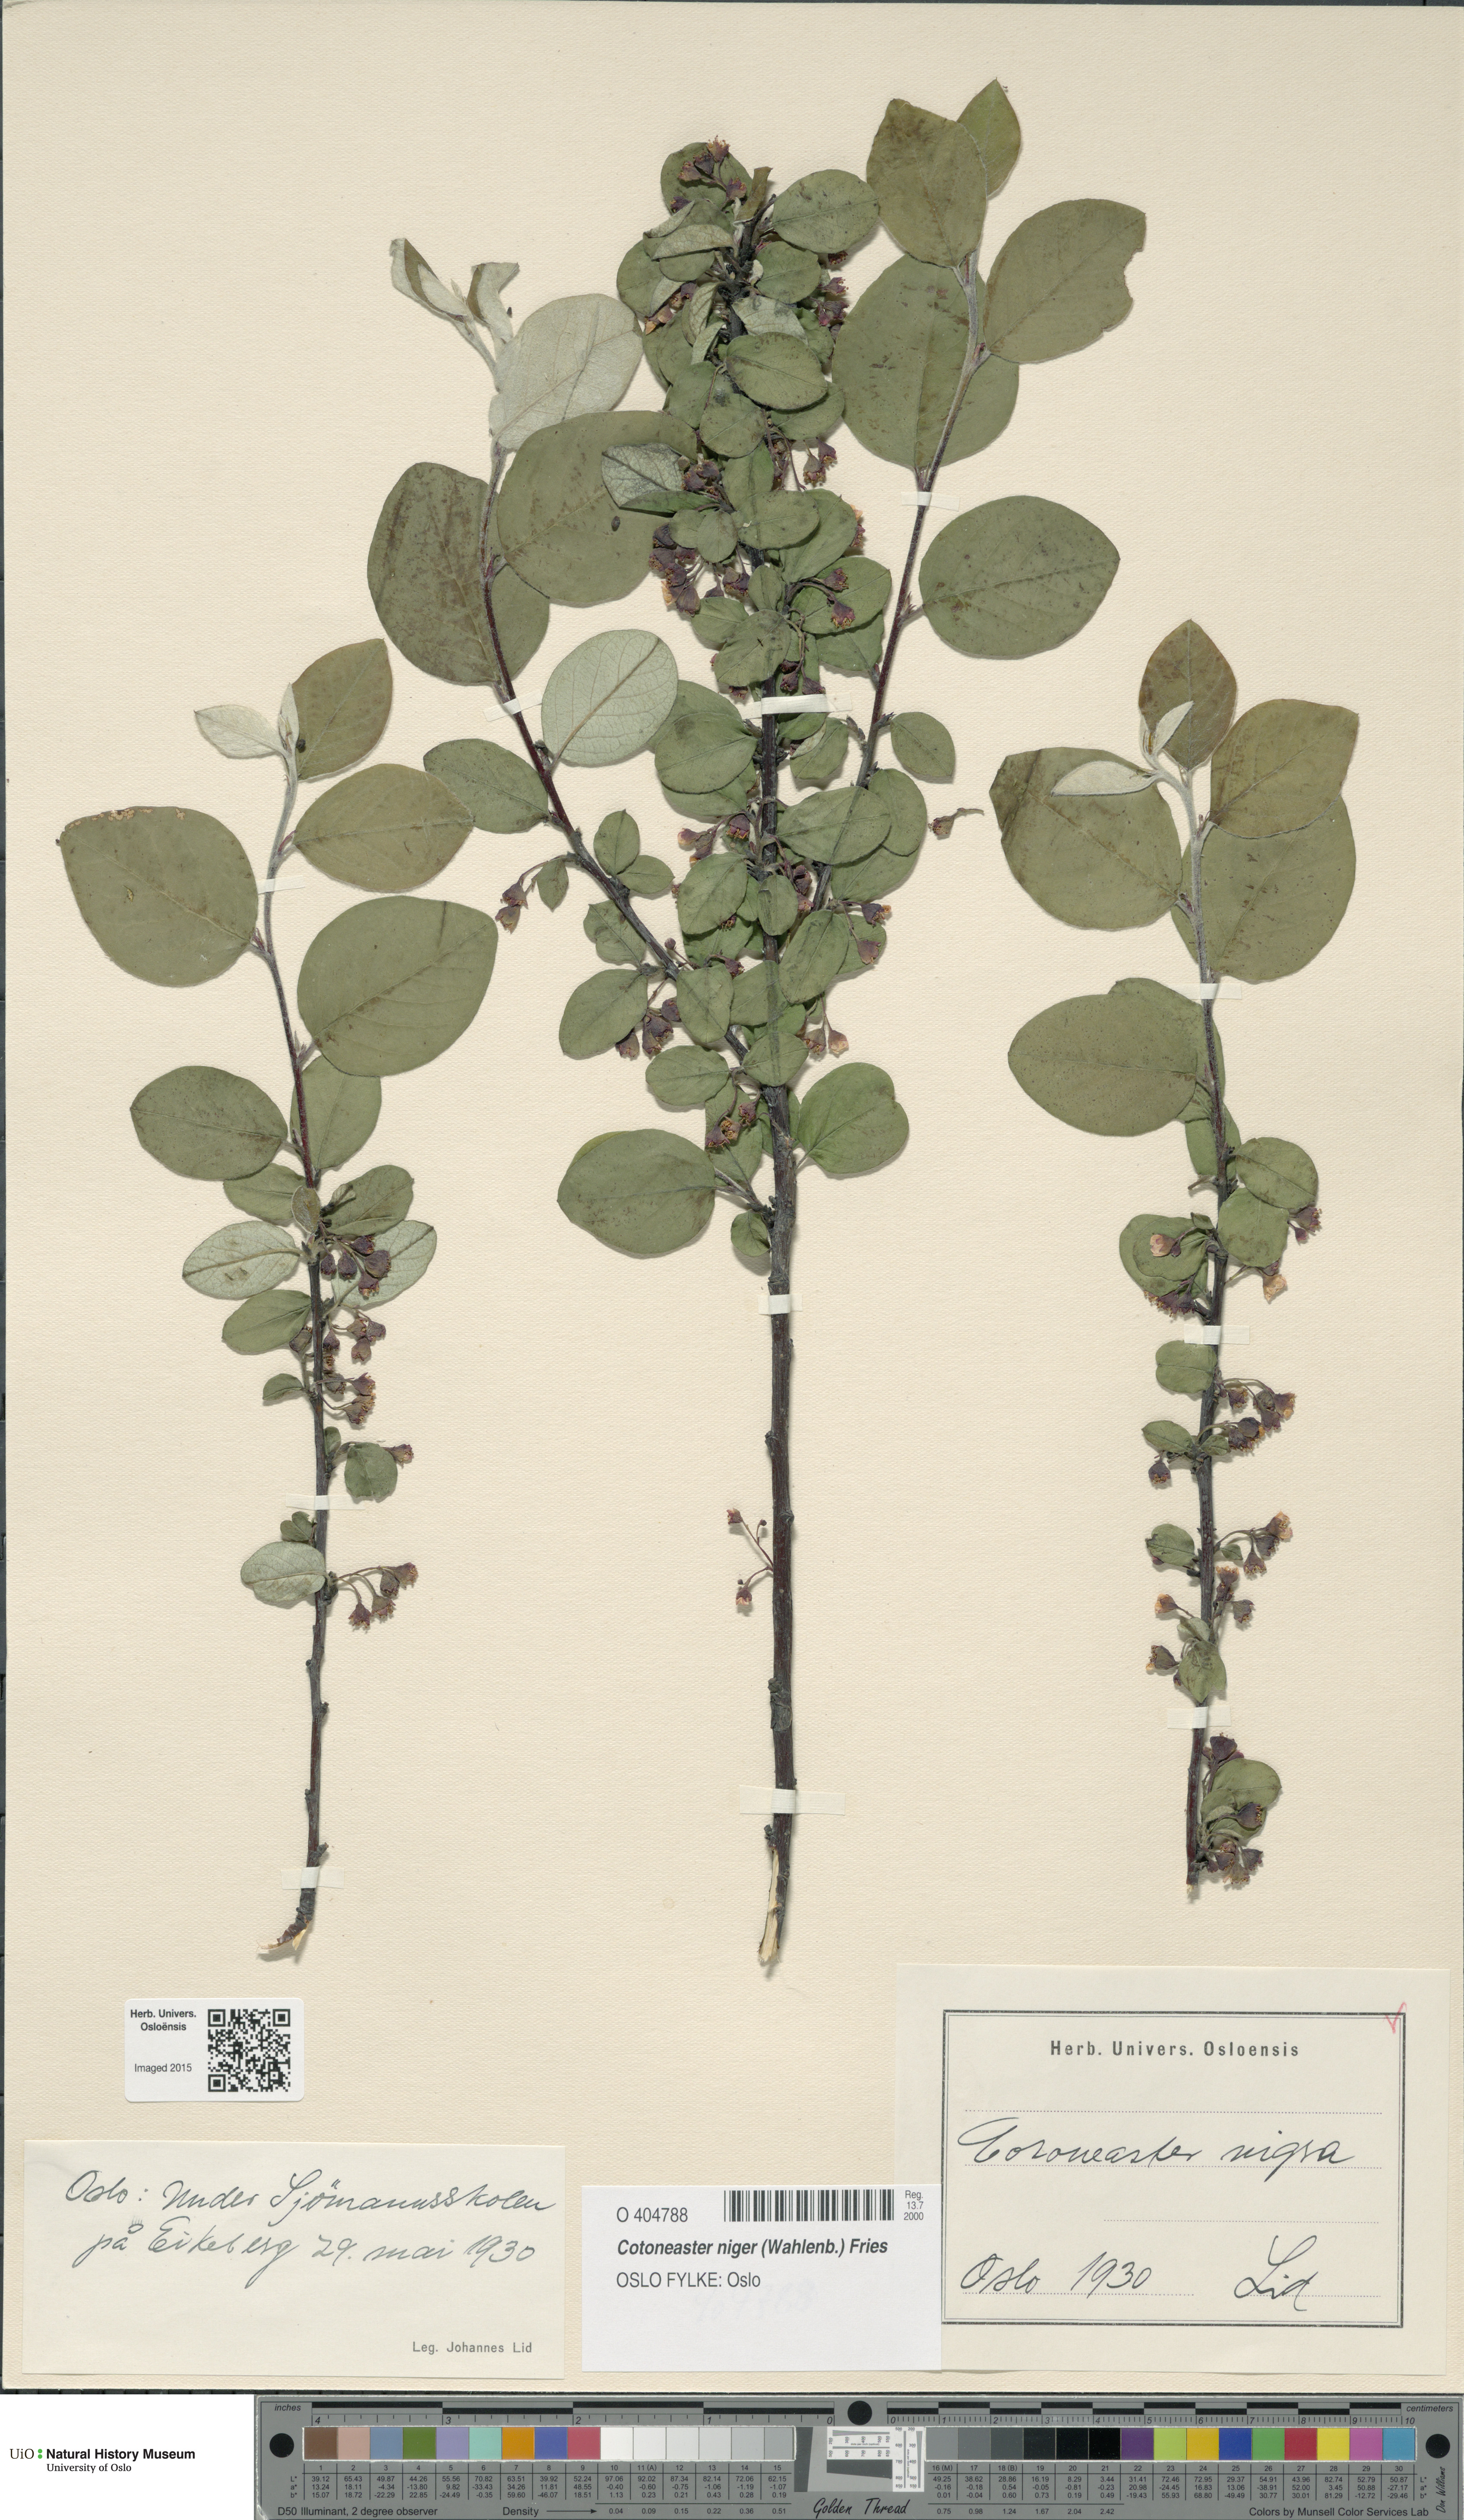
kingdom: Plantae
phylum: Tracheophyta
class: Magnoliopsida
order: Rosales
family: Rosaceae
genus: Cotoneaster
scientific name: Cotoneaster niger
